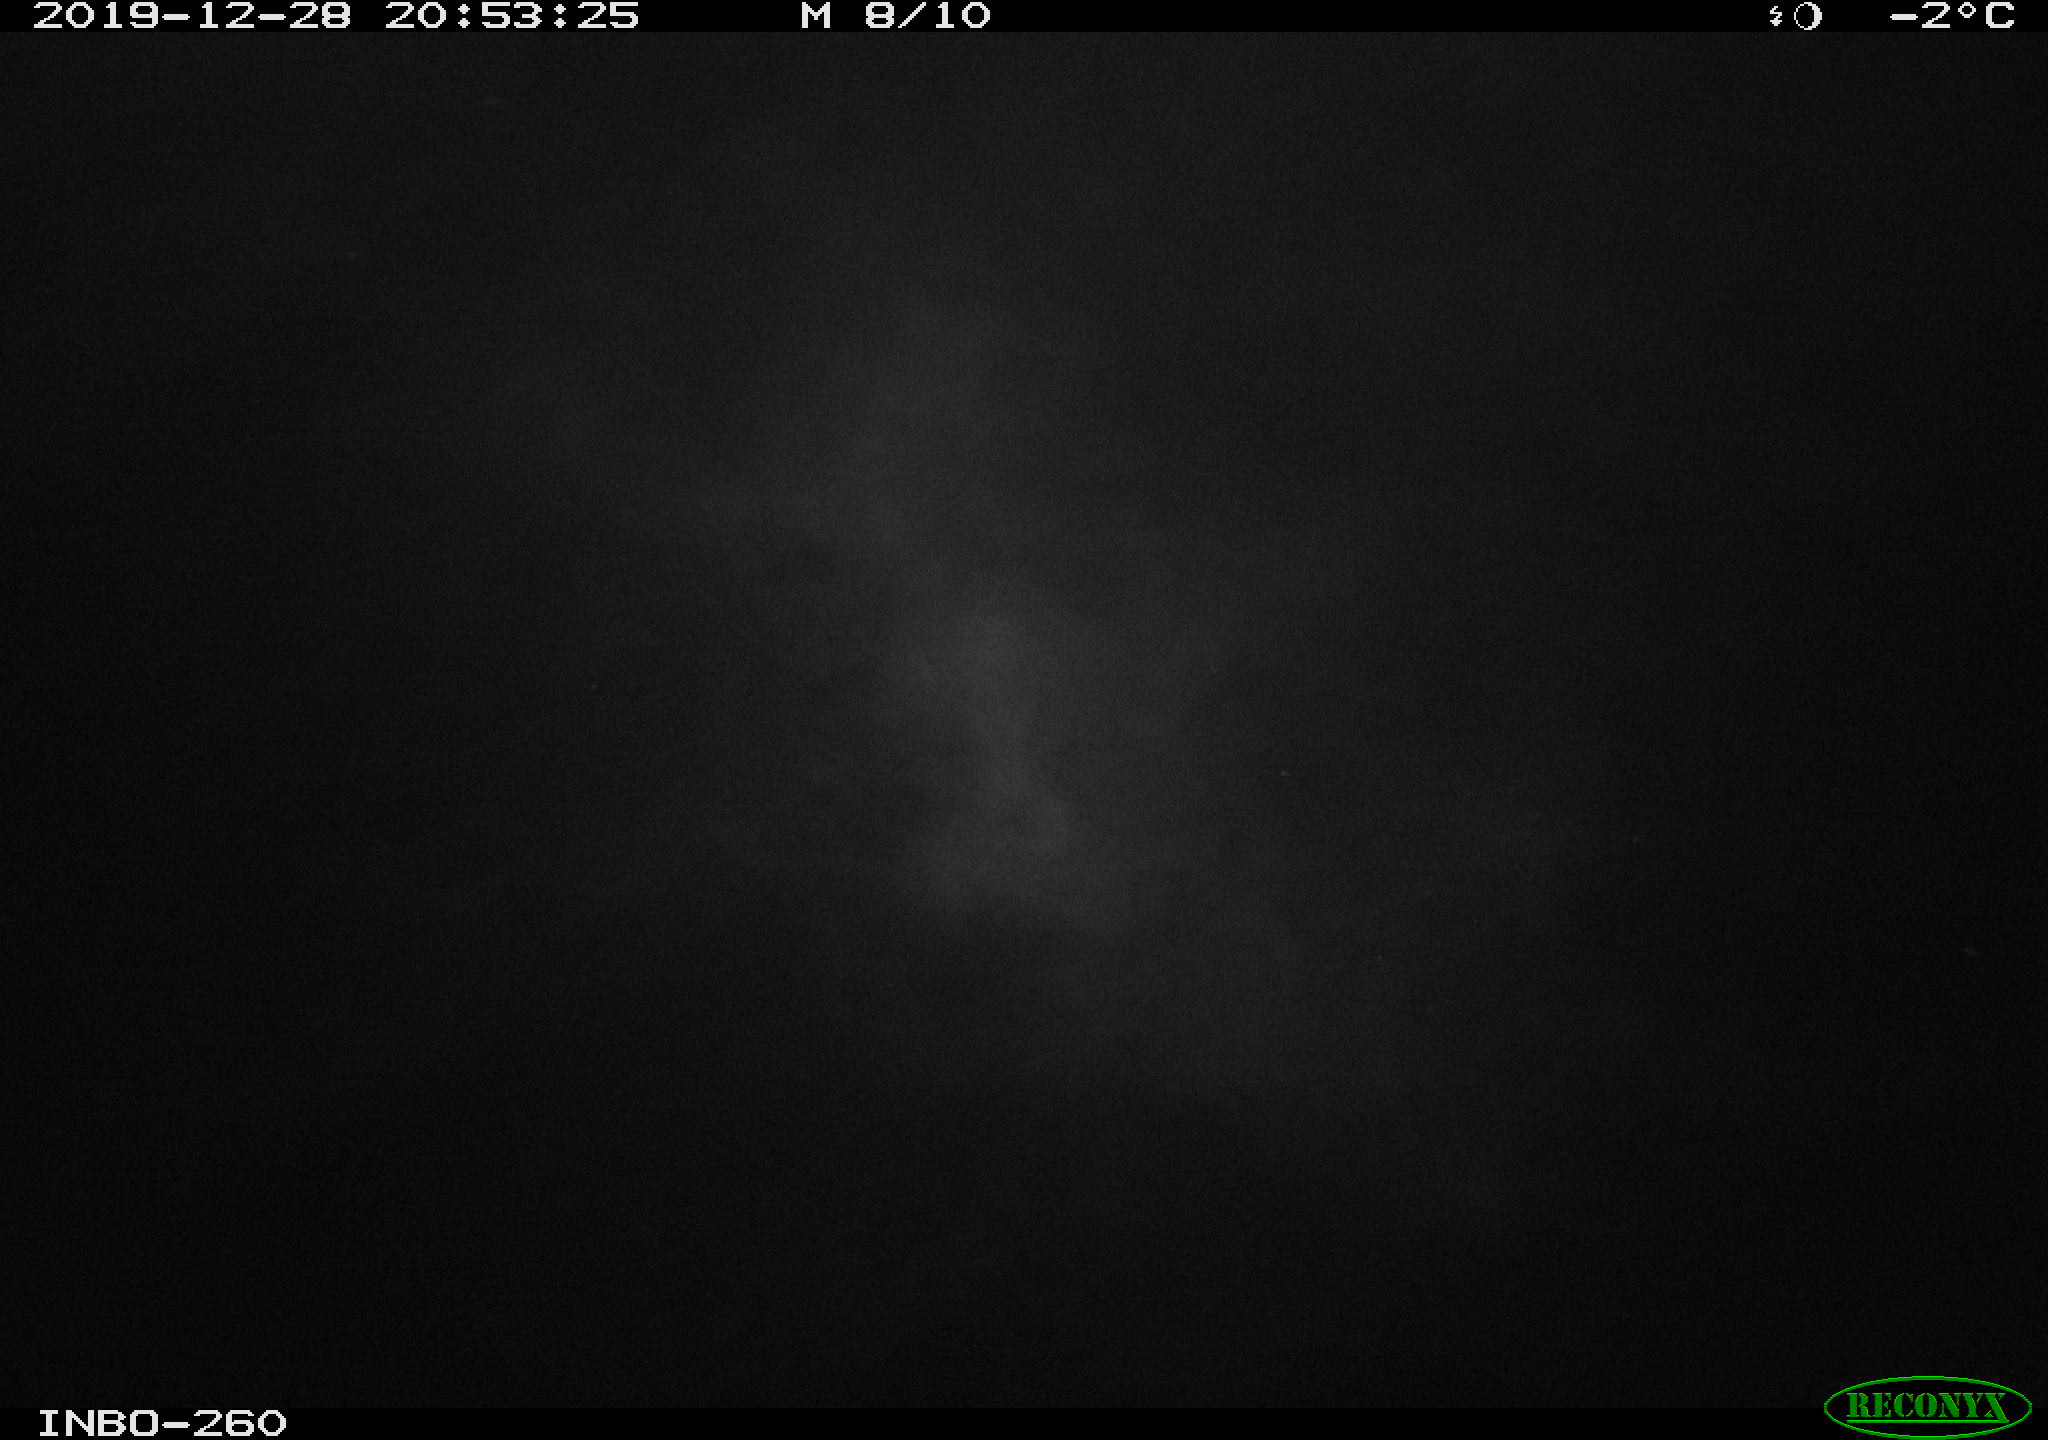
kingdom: Animalia
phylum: Chordata
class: Aves
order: Anseriformes
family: Anatidae
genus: Anas
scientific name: Anas platyrhynchos
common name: Mallard
